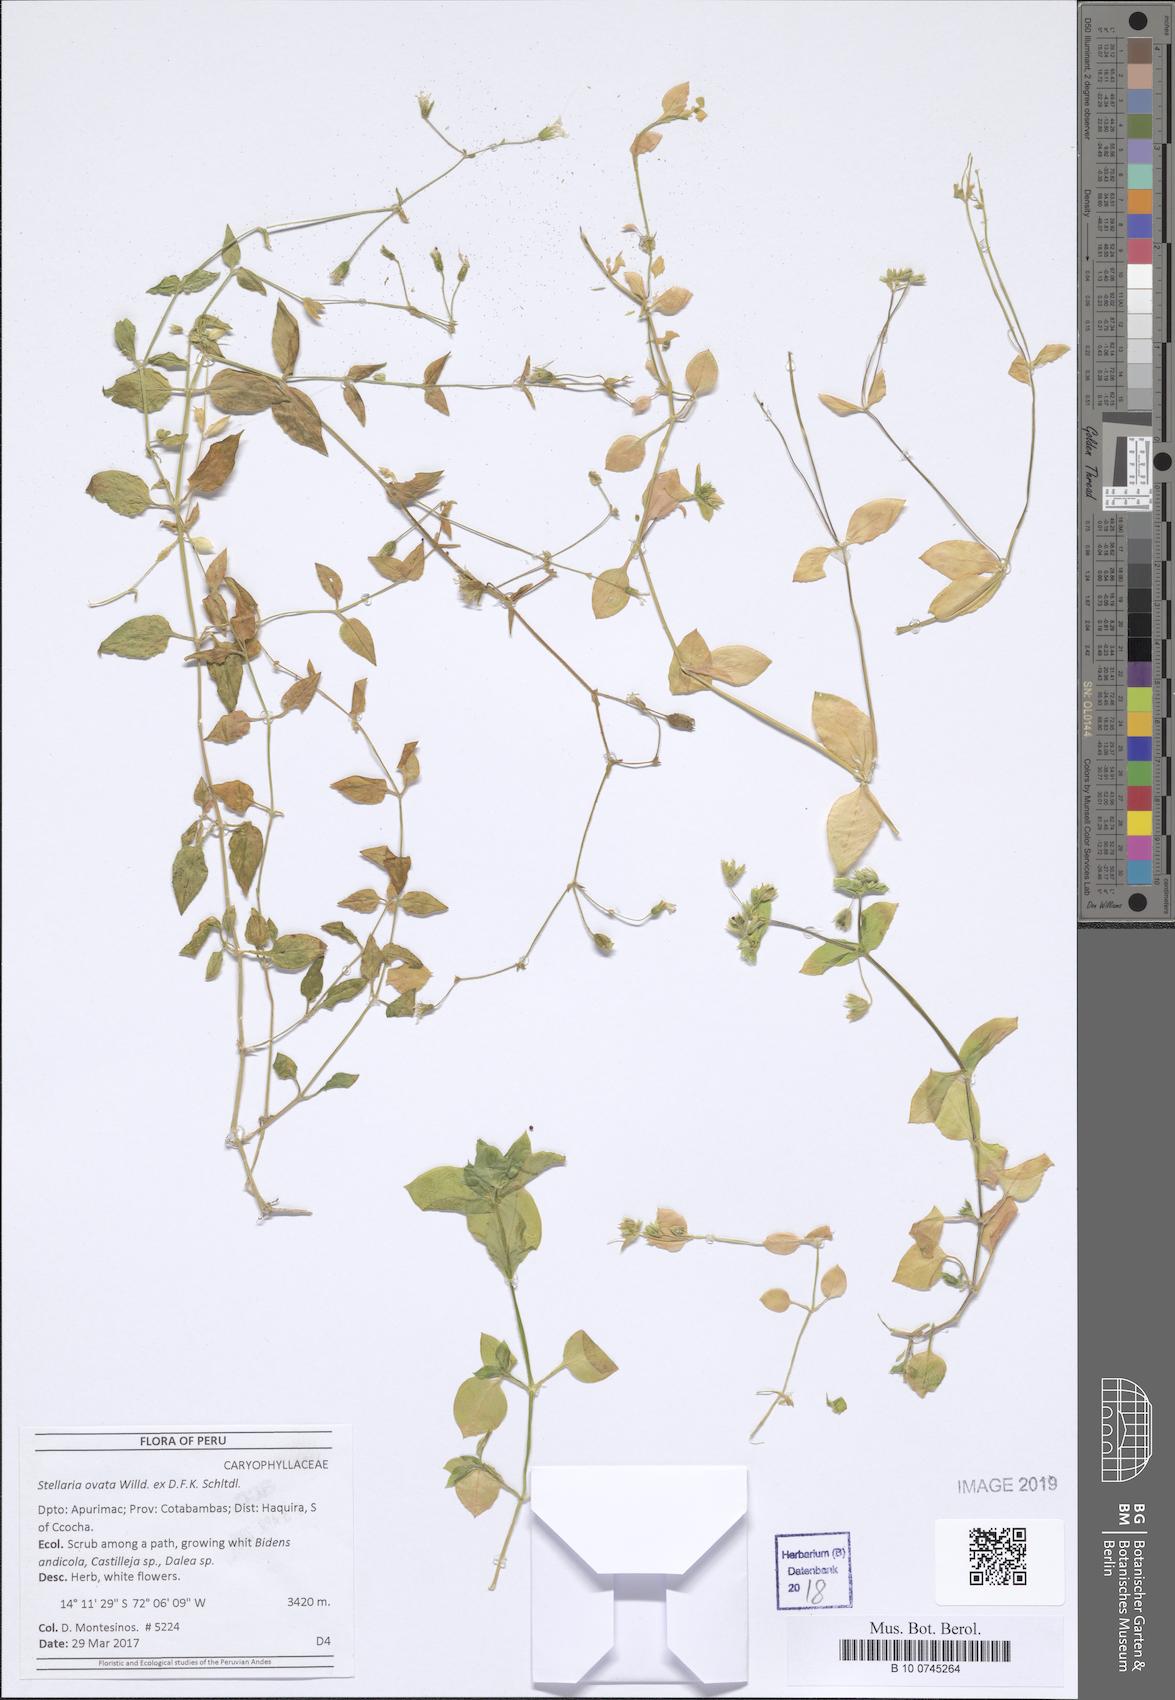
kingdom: Plantae
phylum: Tracheophyta
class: Magnoliopsida
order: Caryophyllales
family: Caryophyllaceae
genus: Stellaria
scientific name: Stellaria ovata
